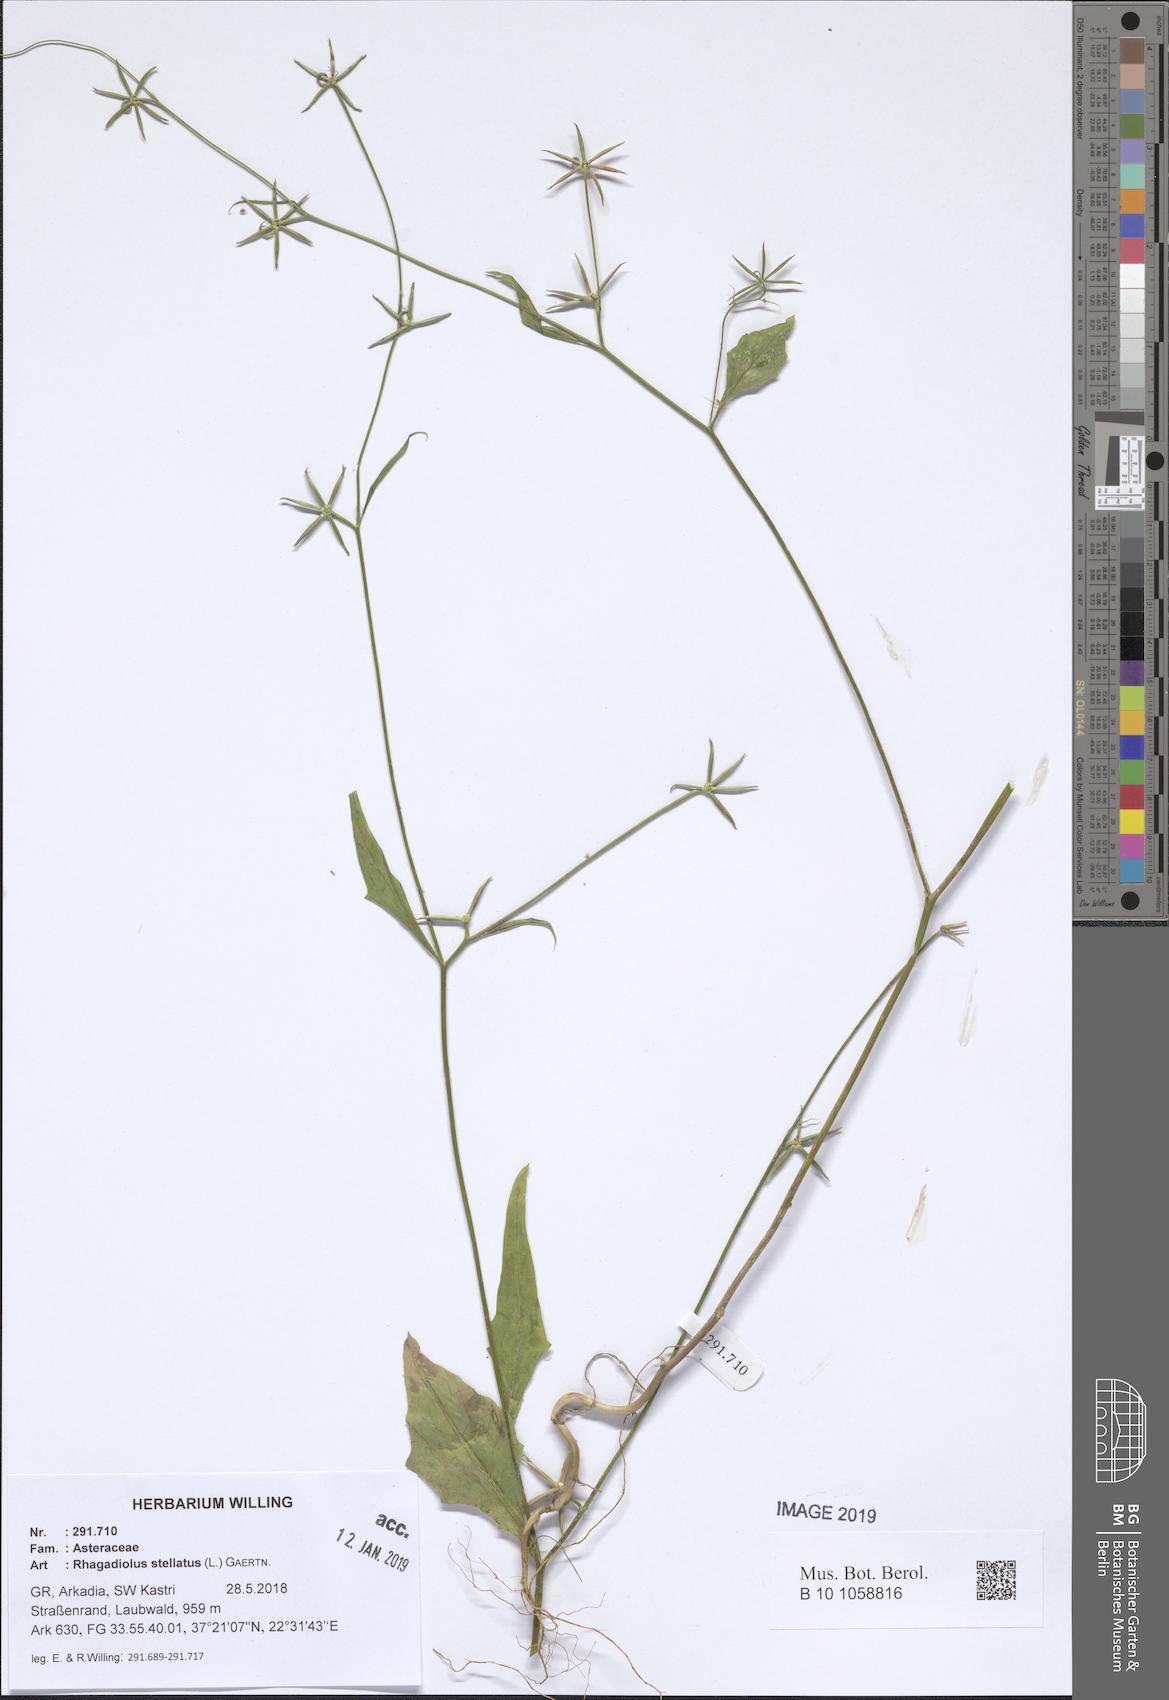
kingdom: Plantae
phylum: Tracheophyta
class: Magnoliopsida
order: Asterales
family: Asteraceae
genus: Rhagadiolus
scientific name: Rhagadiolus stellatus
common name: Star hawkbit
